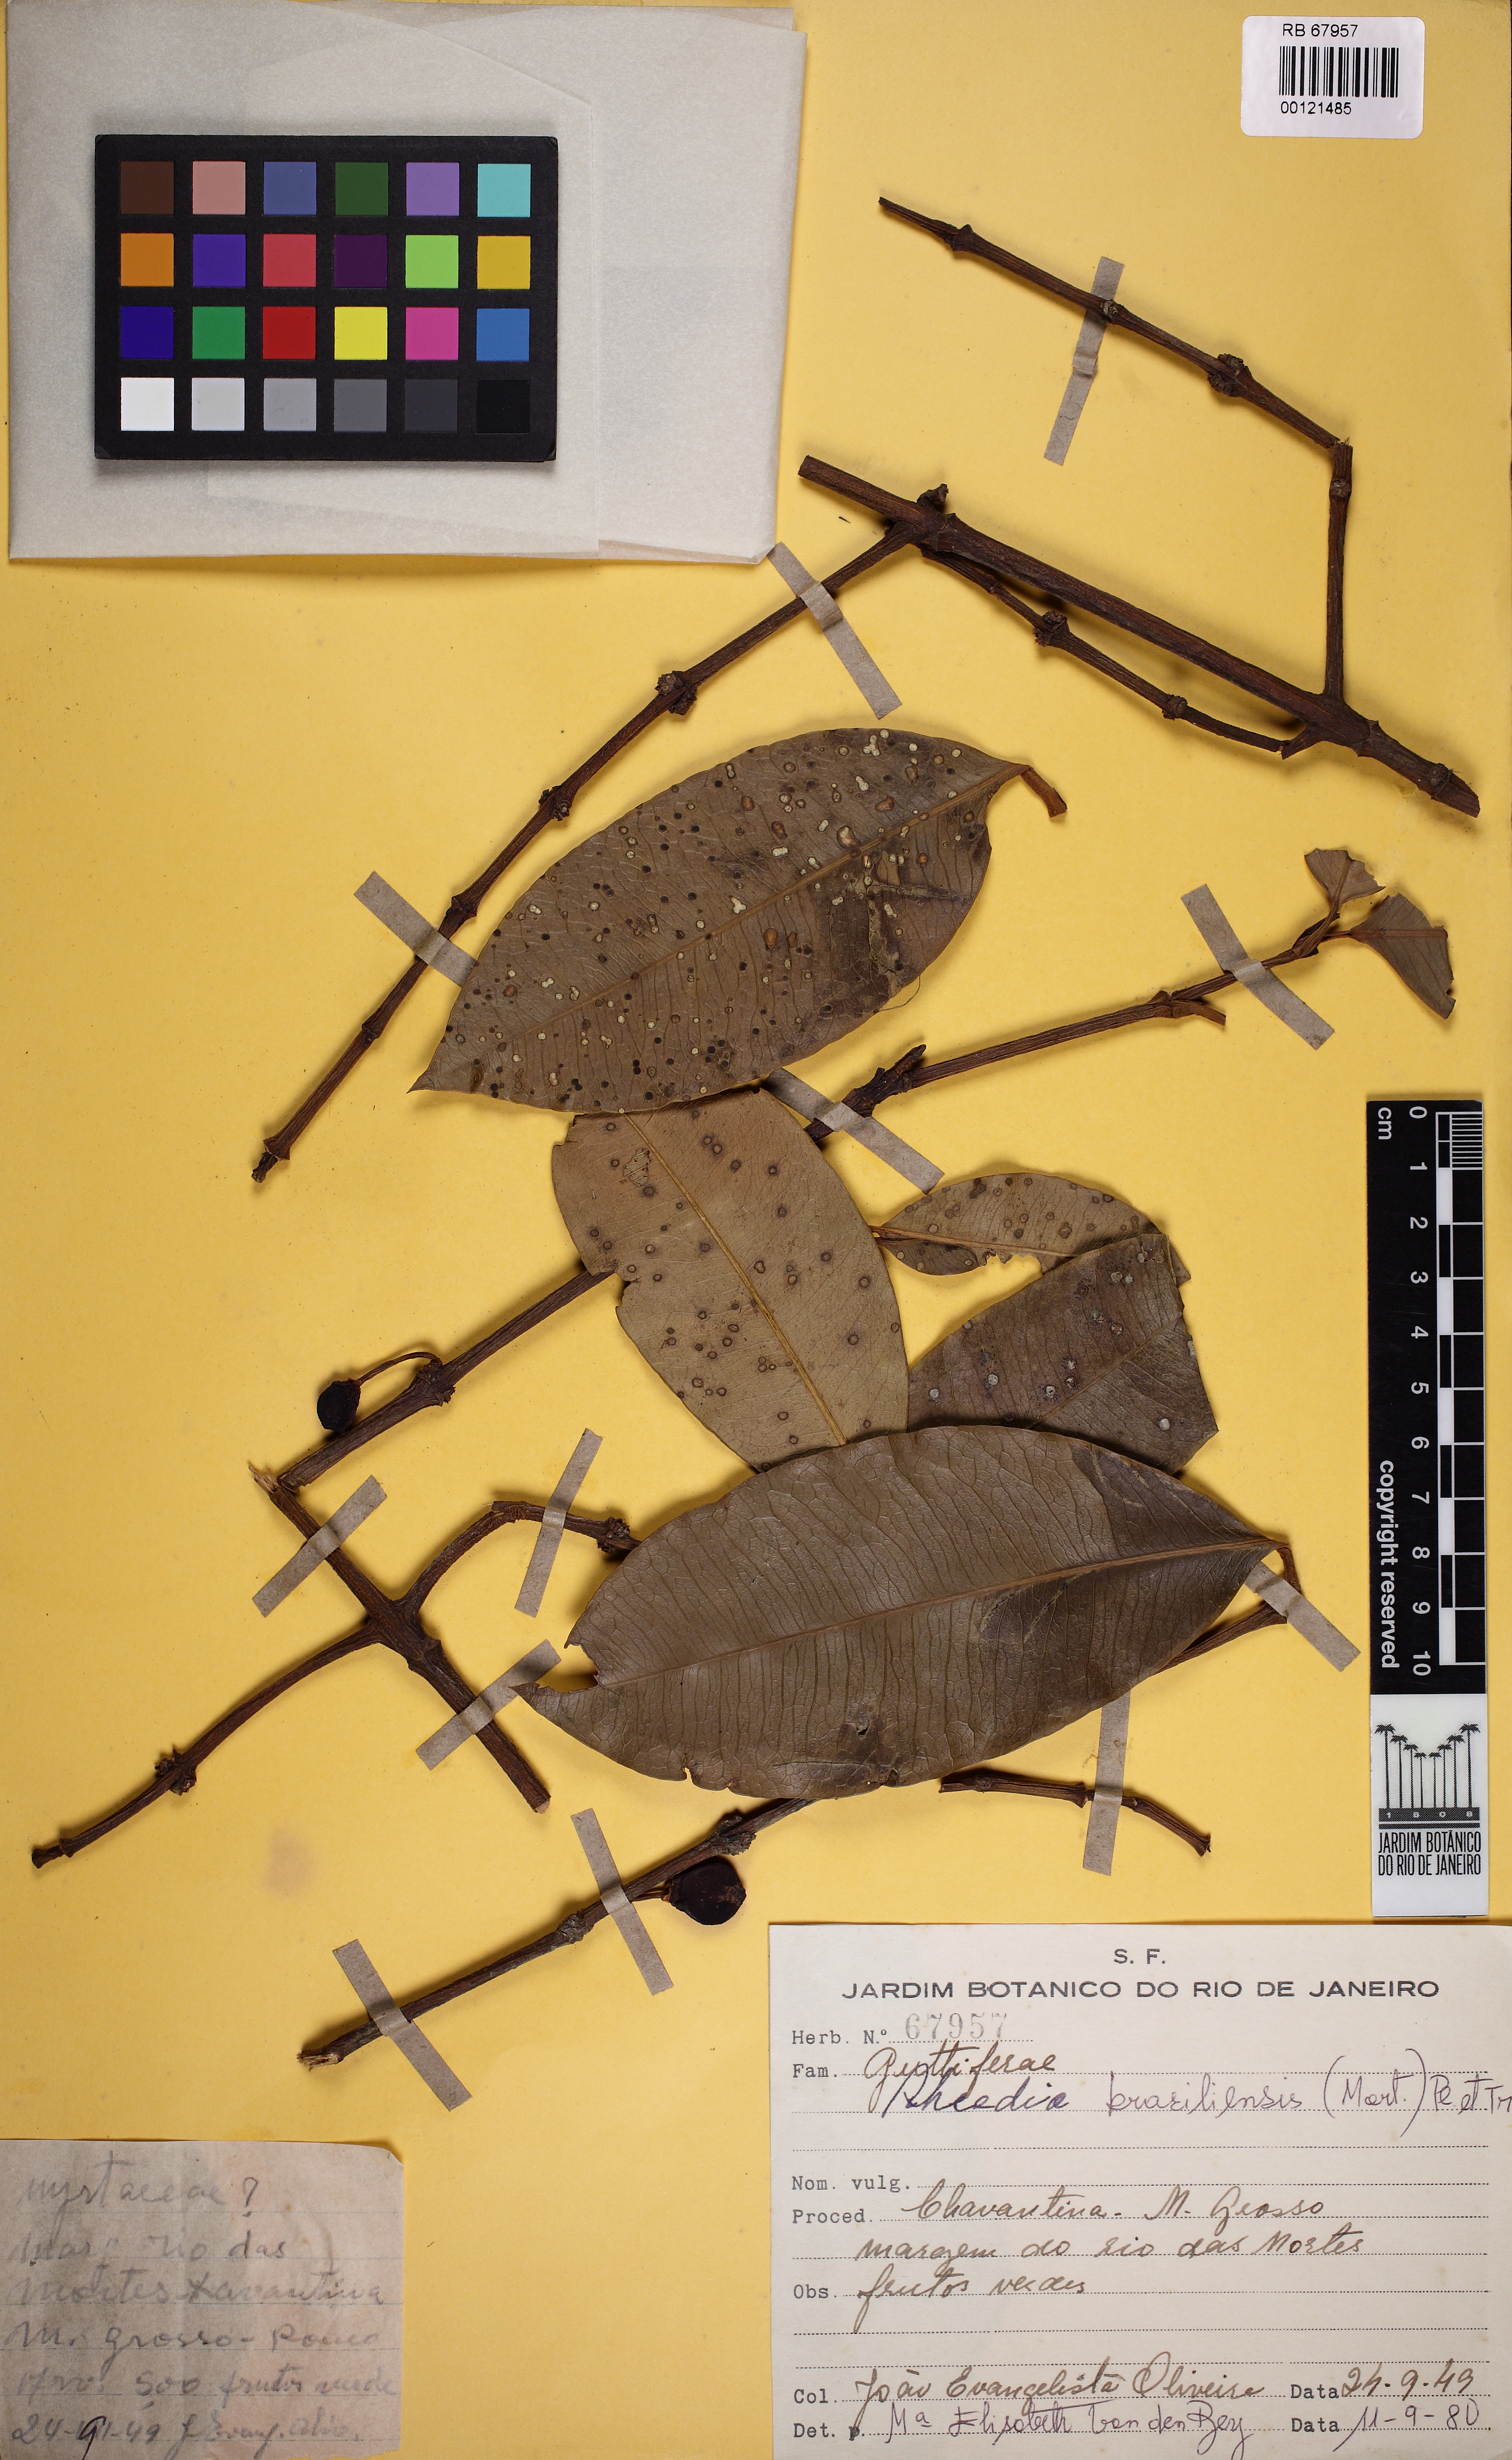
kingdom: Plantae
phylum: Tracheophyta
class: Magnoliopsida
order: Malpighiales
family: Clusiaceae
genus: Garcinia
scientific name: Garcinia guacopary
